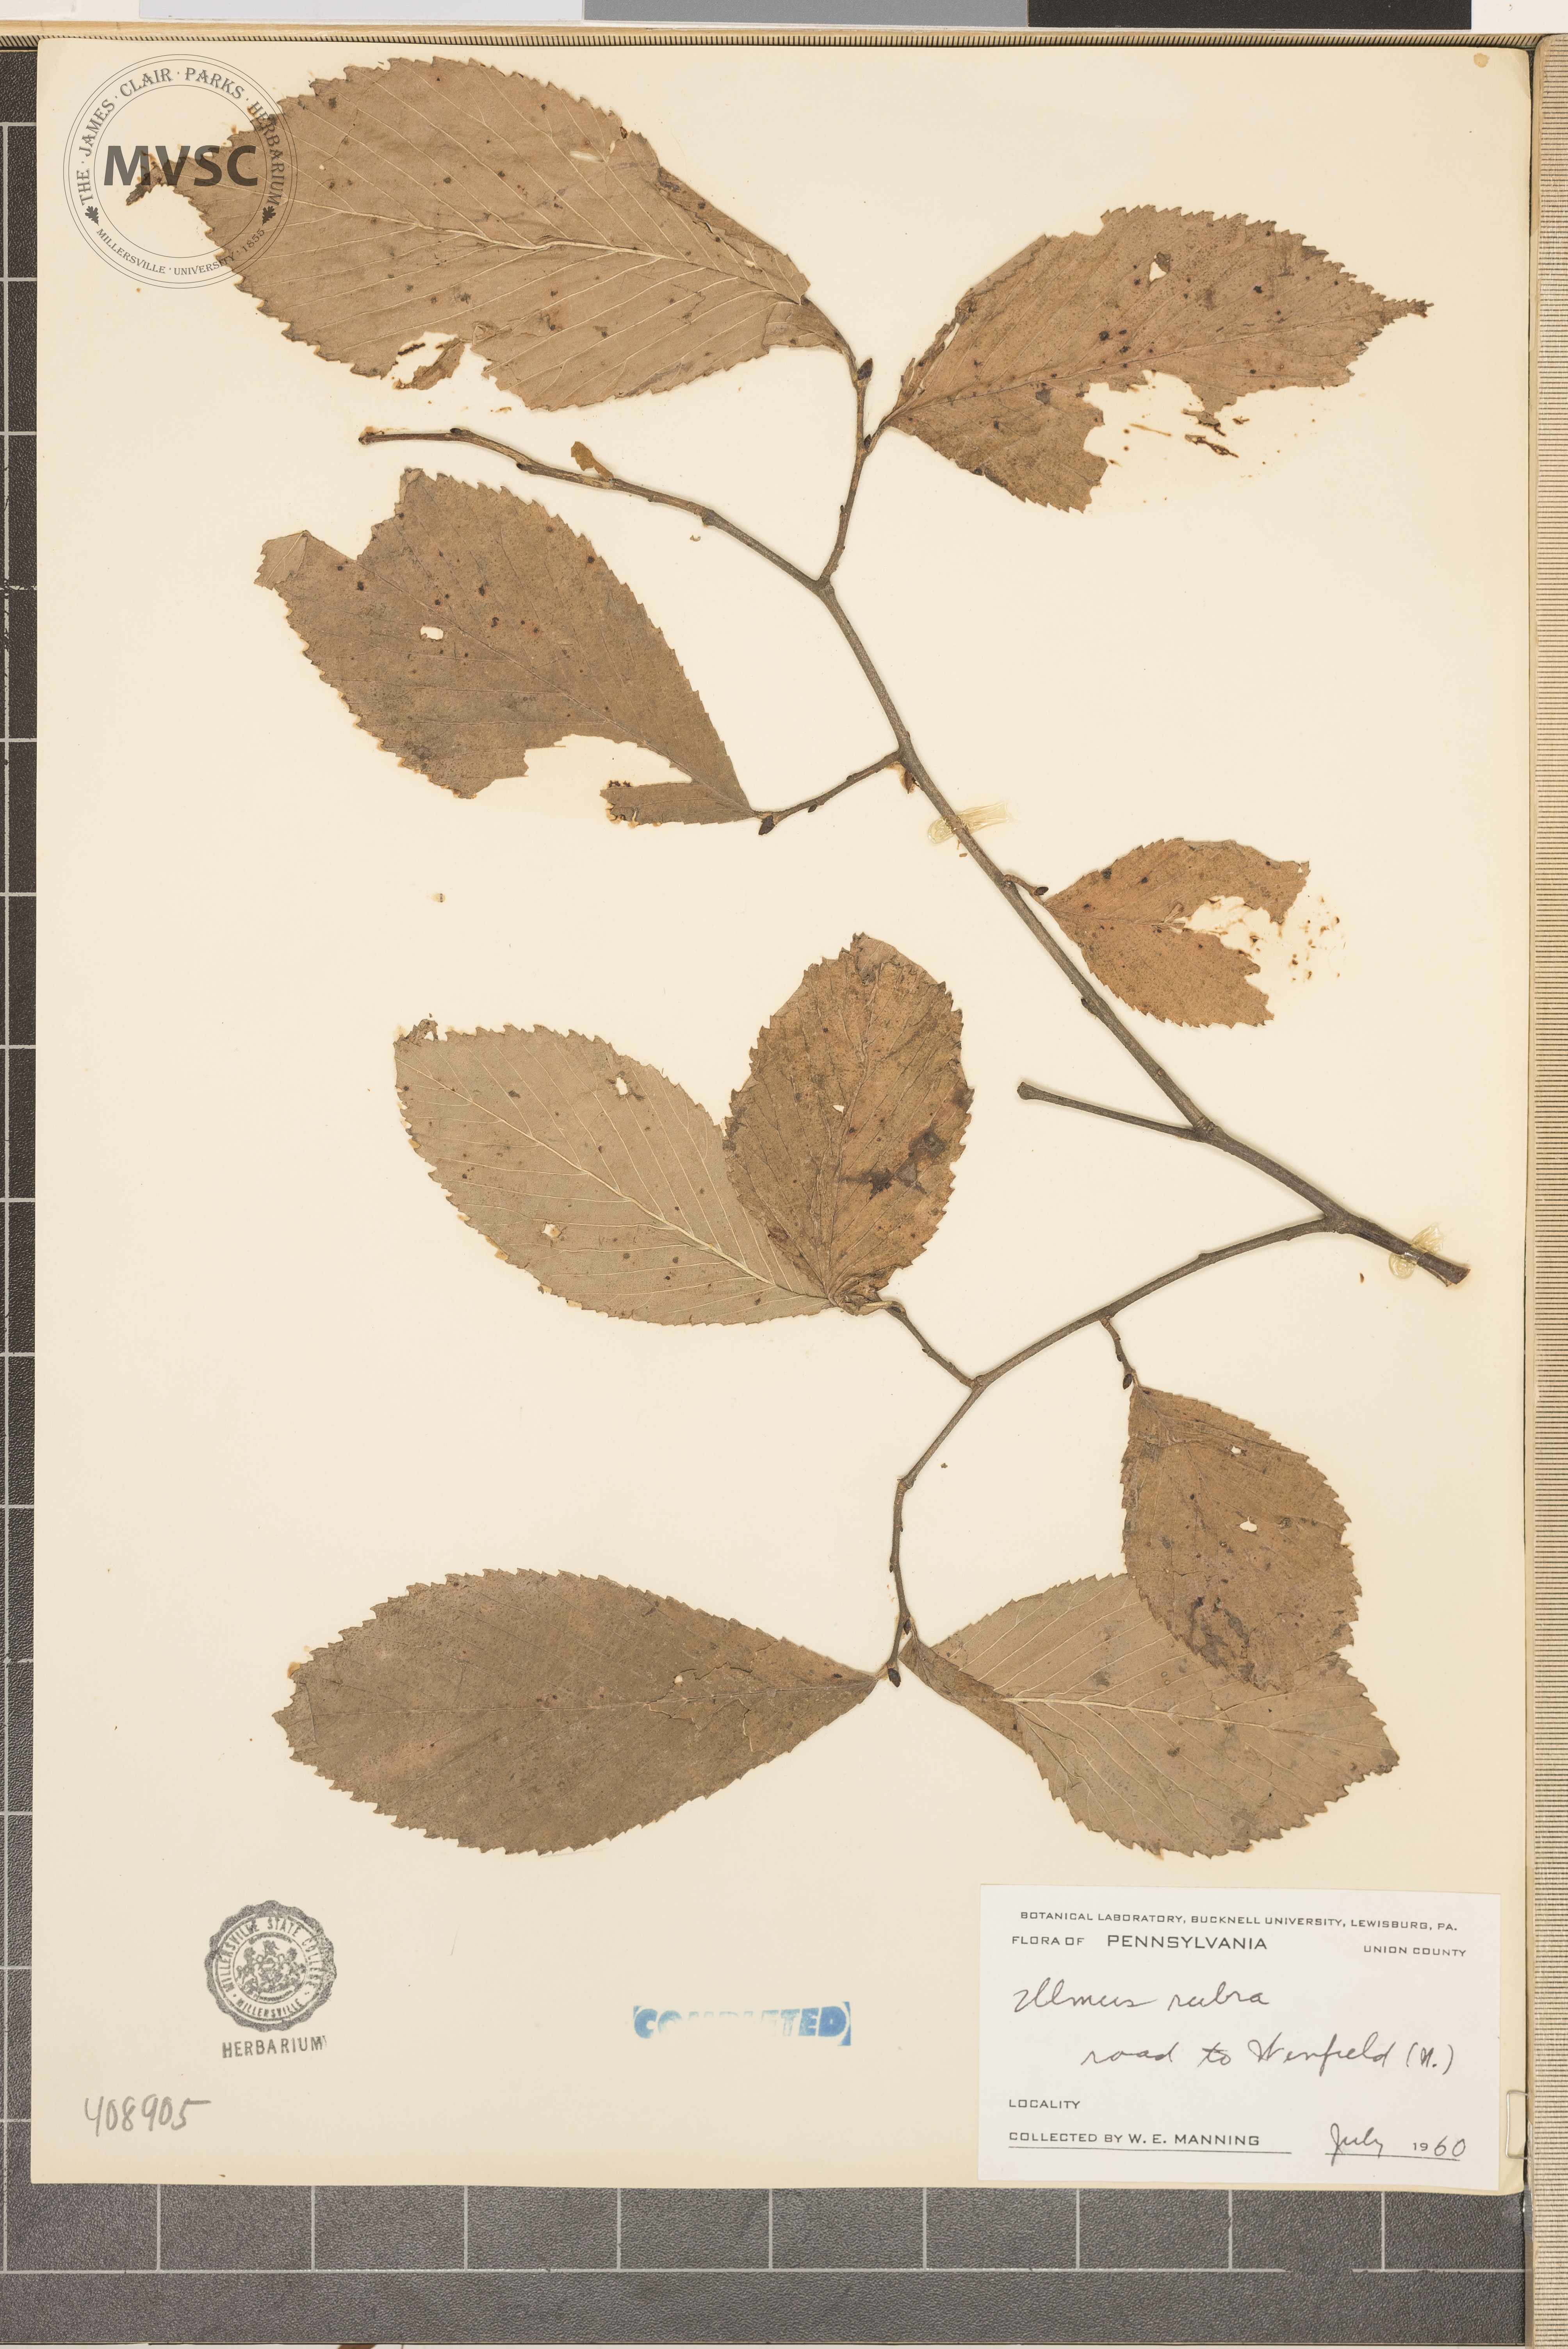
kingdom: Plantae
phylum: Tracheophyta
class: Magnoliopsida
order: Rosales
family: Ulmaceae
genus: Ulmus
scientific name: Ulmus rubra
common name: slippery elm
